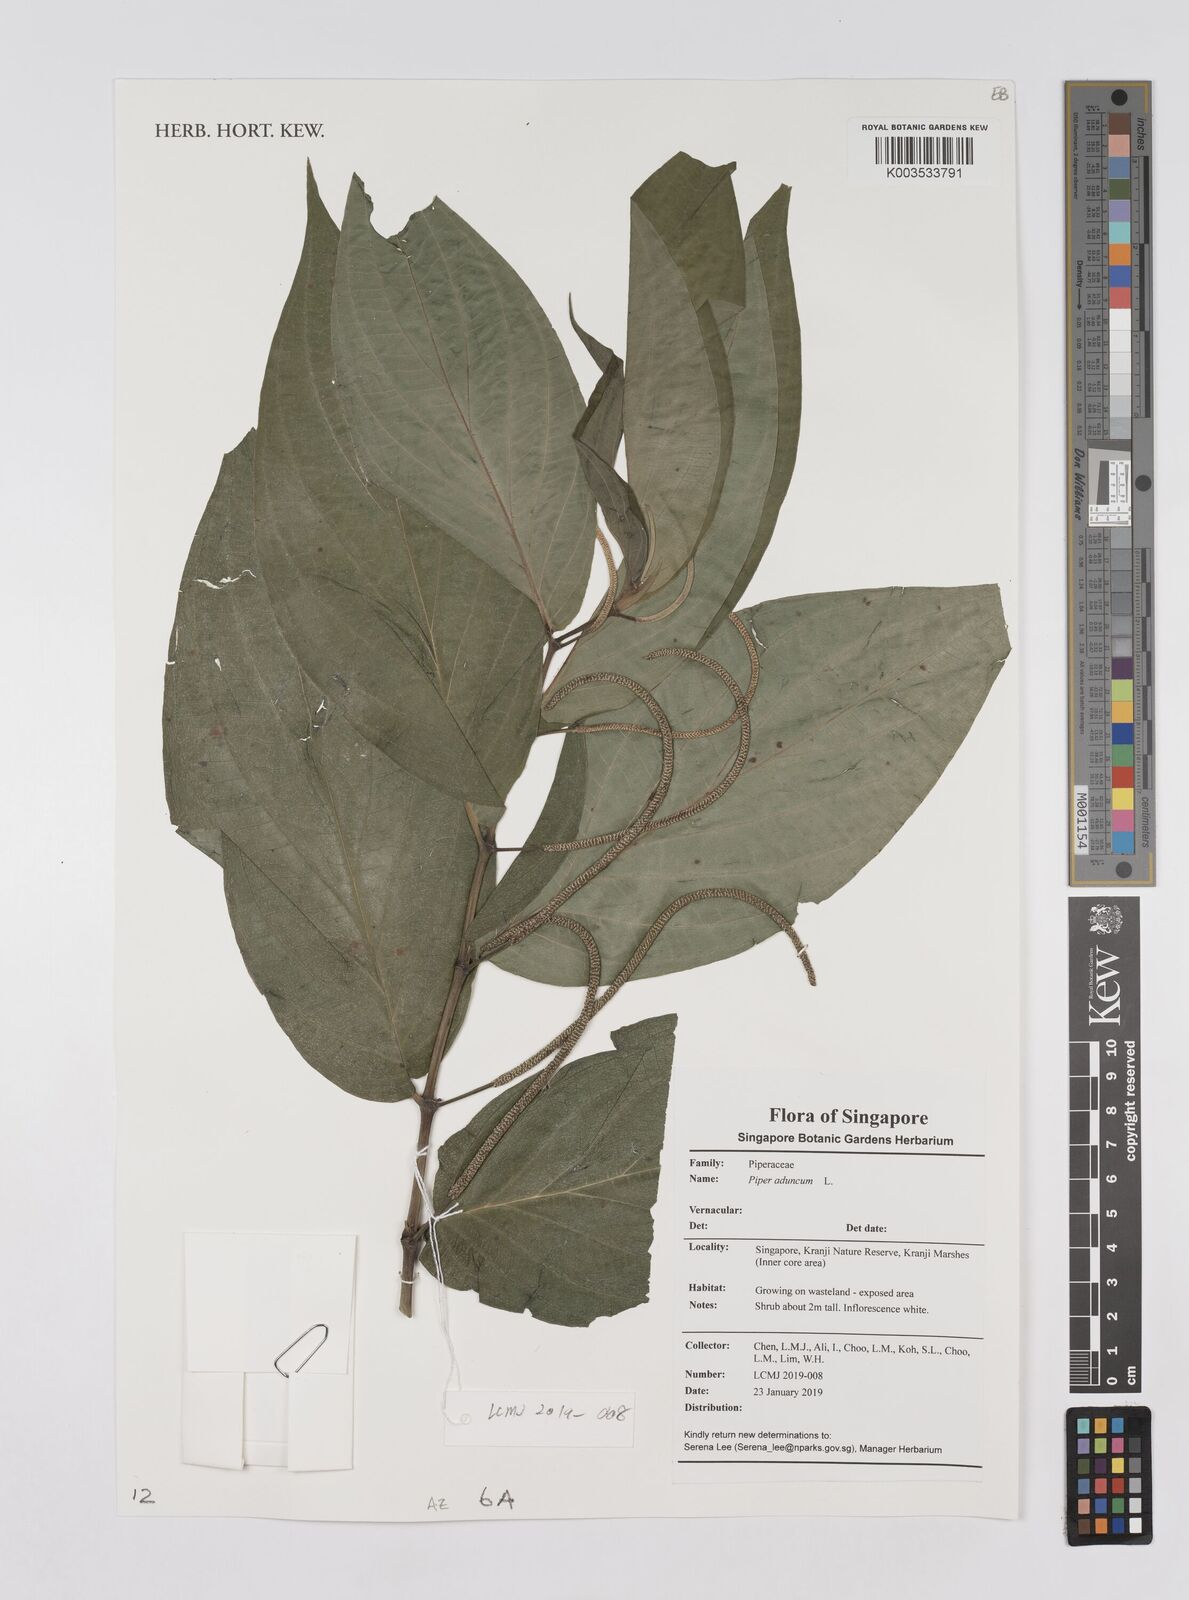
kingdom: Plantae
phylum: Tracheophyta
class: Magnoliopsida
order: Piperales
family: Piperaceae
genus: Piper
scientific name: Piper aduncum
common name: Spiked pepper
